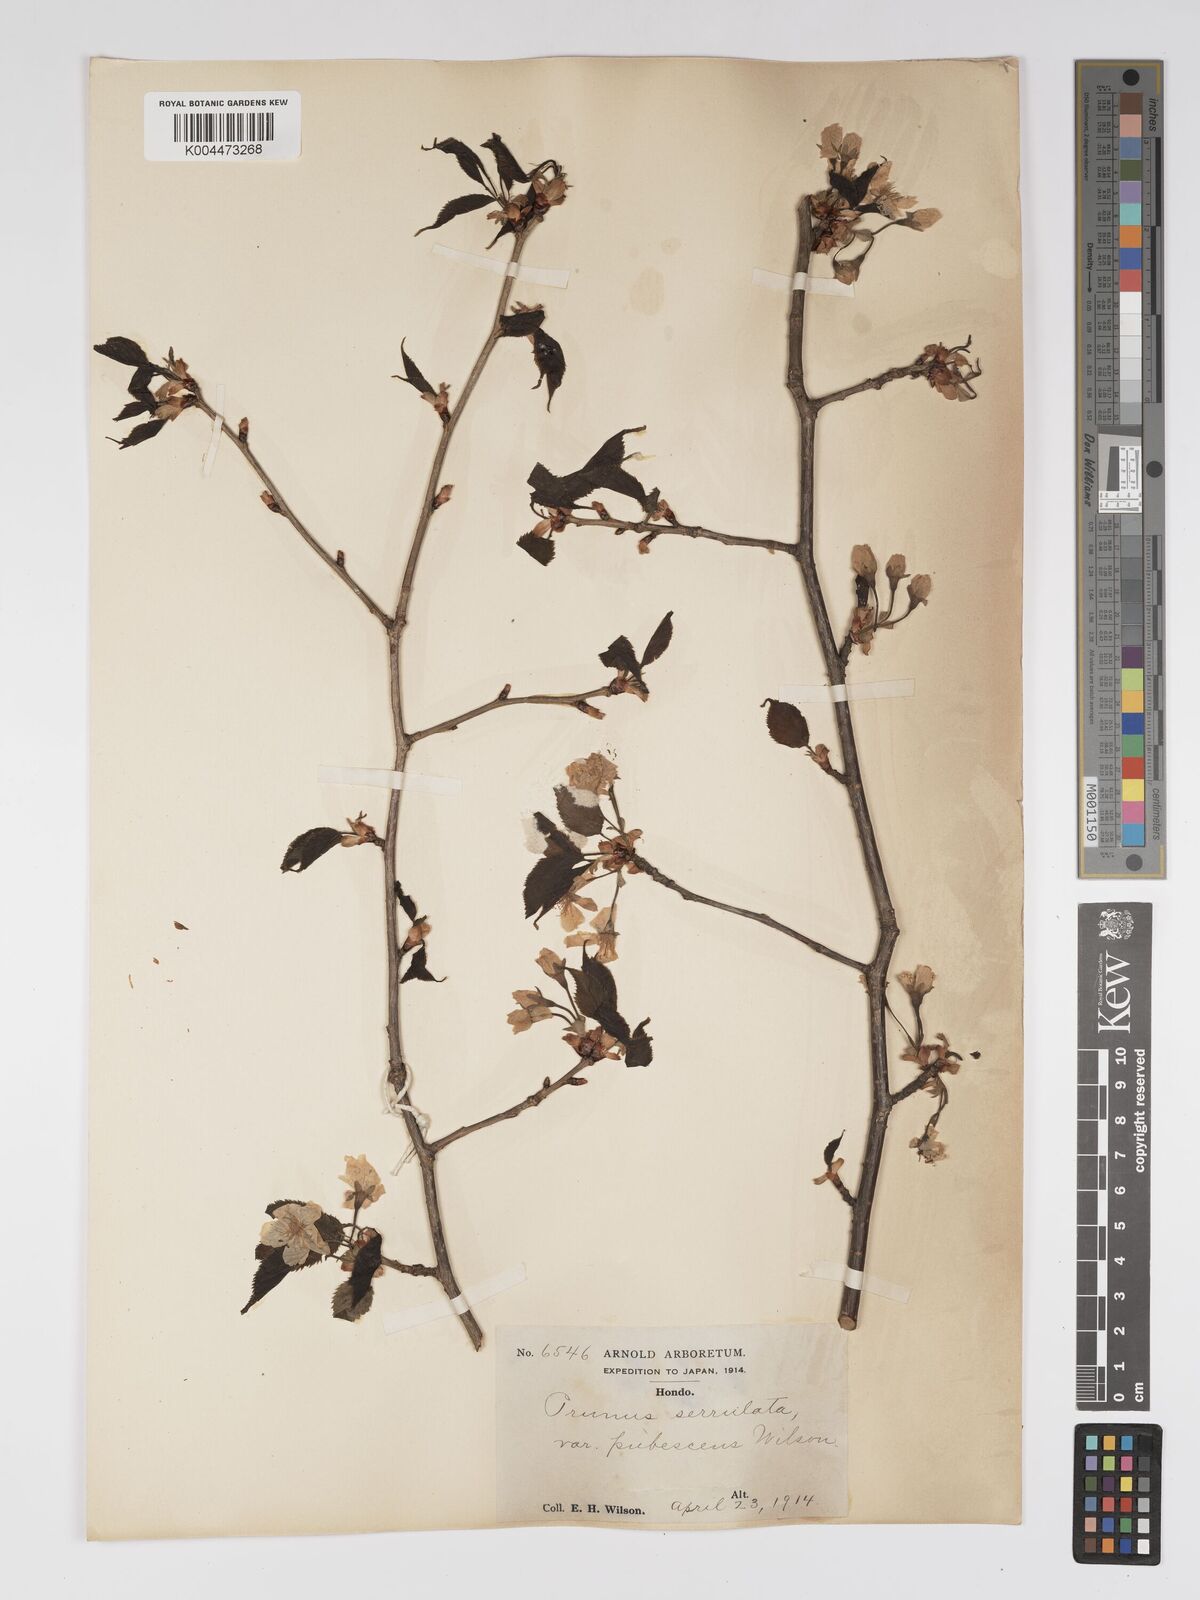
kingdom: Plantae
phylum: Tracheophyta
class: Magnoliopsida
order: Rosales
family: Rosaceae
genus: Prunus
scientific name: Prunus serrulata
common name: Japanese cherry
